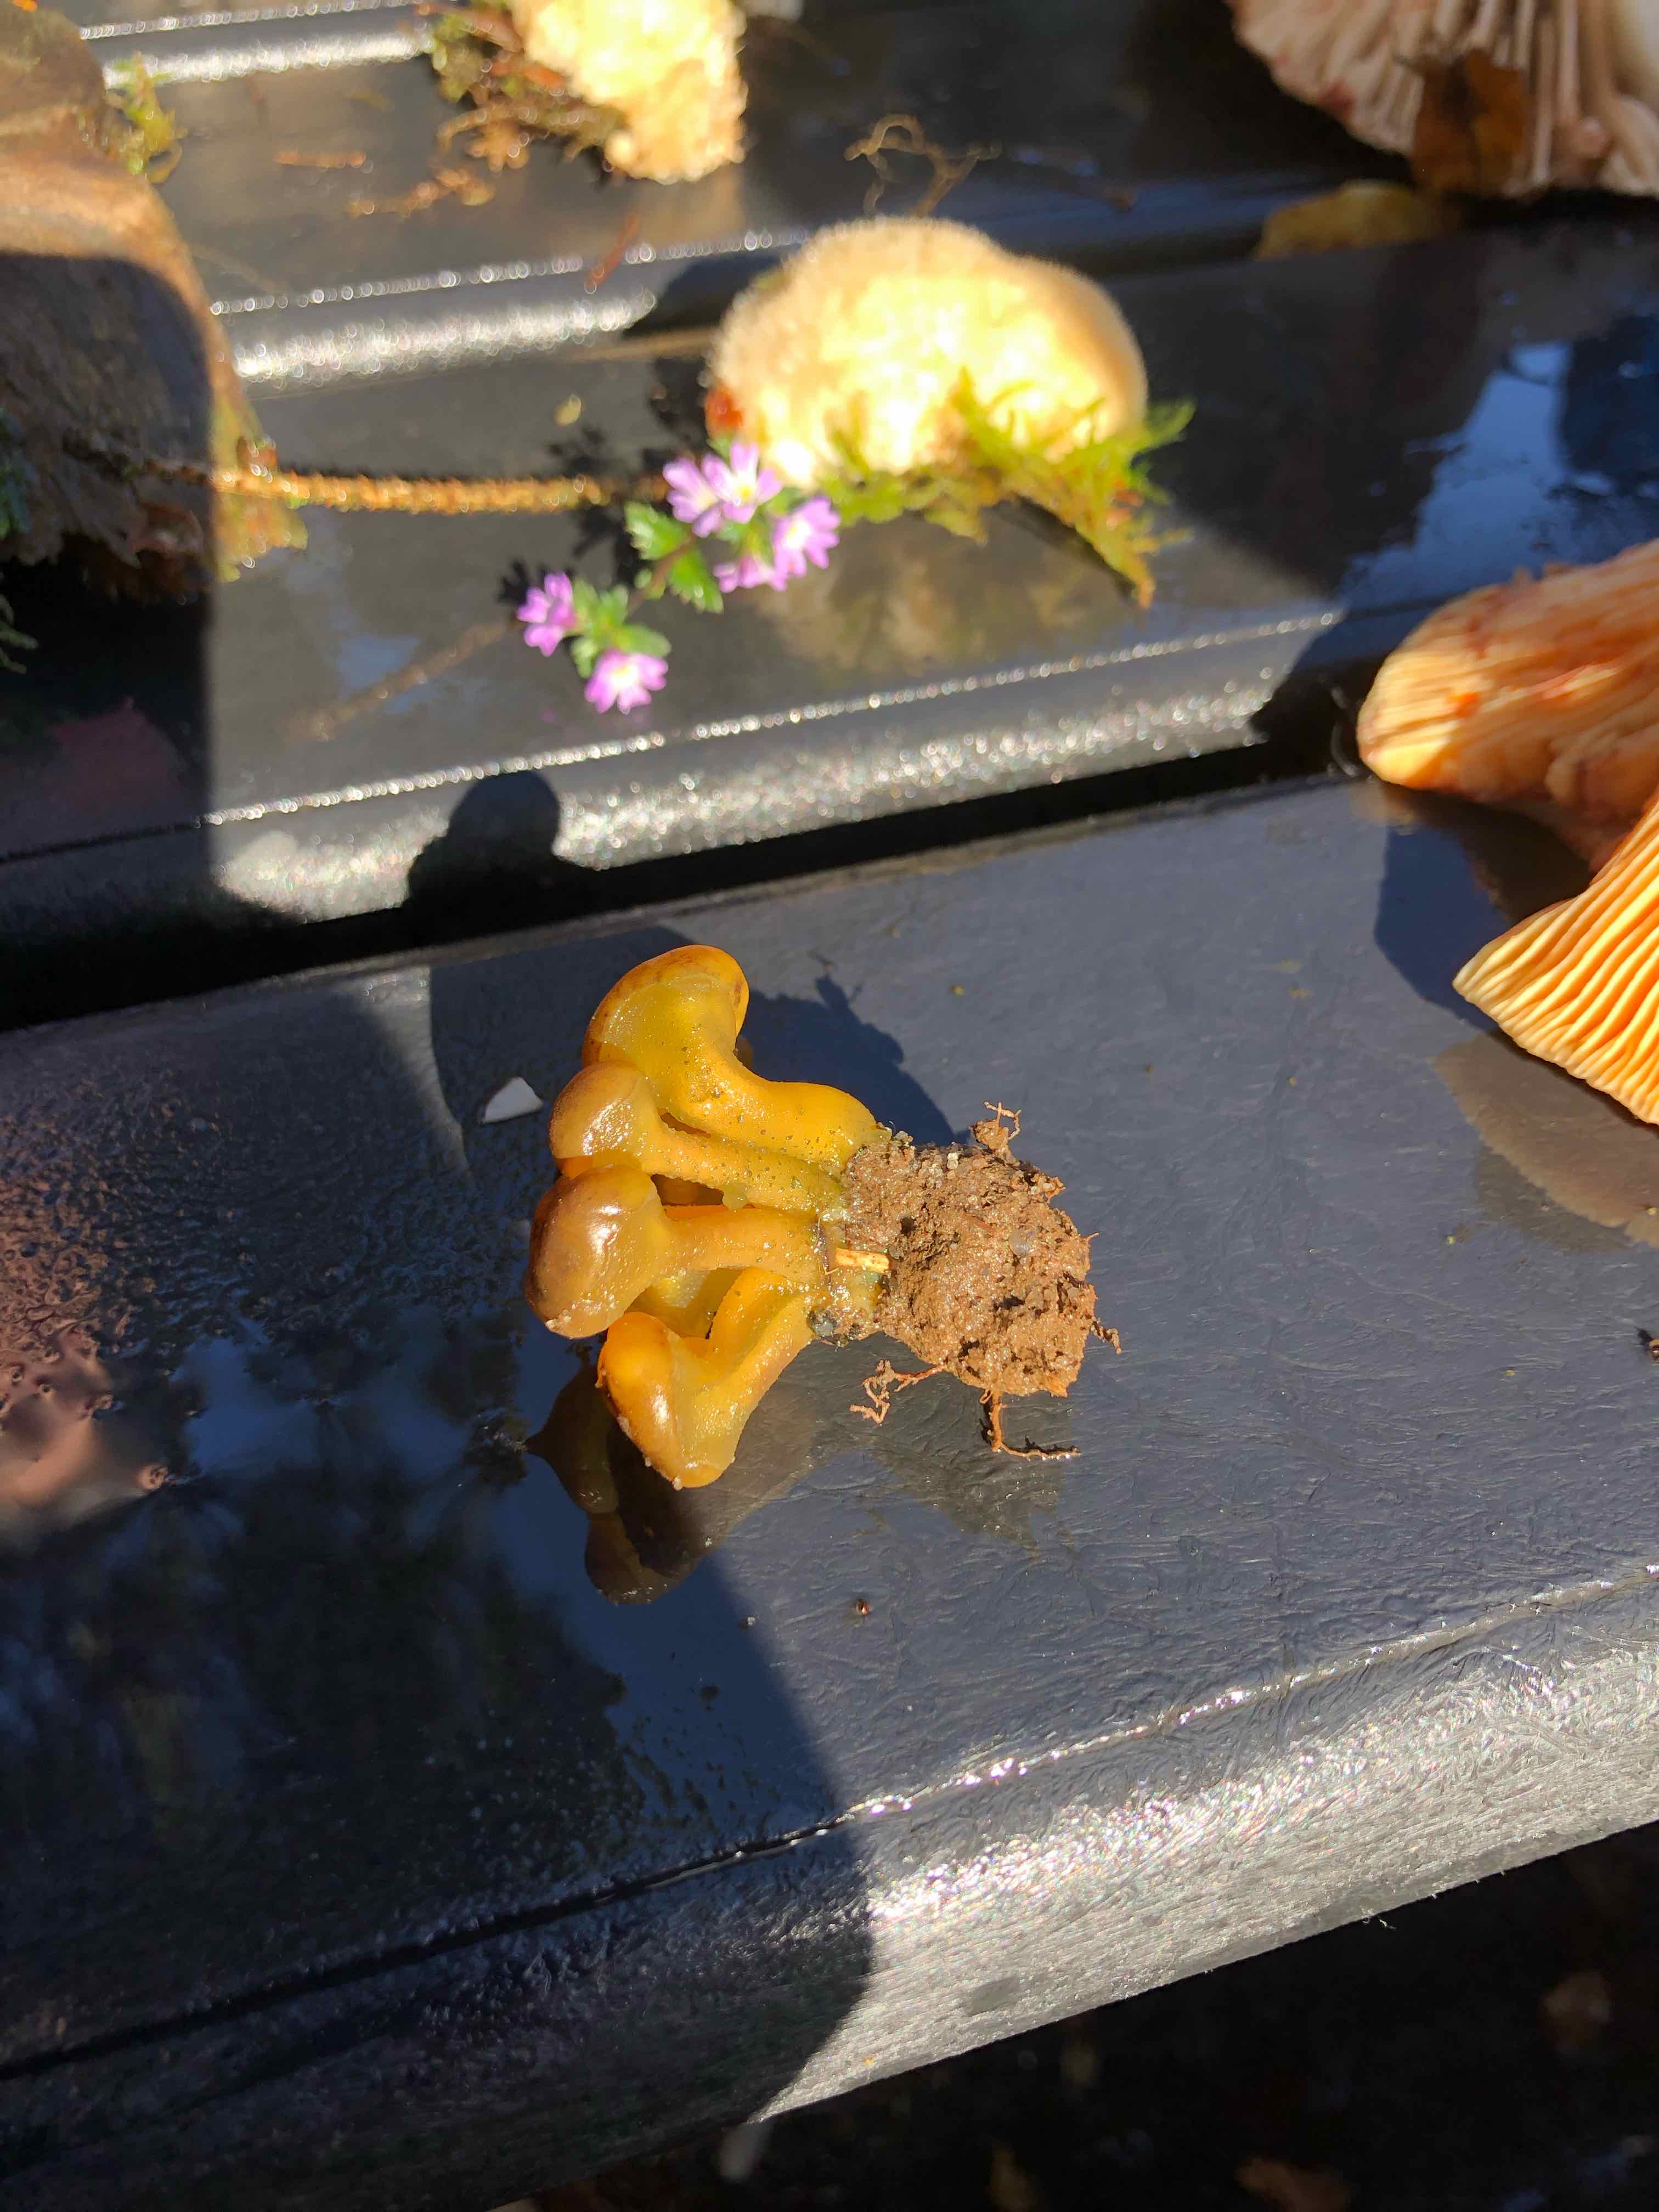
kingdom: Fungi
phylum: Ascomycota
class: Leotiomycetes
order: Leotiales
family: Leotiaceae
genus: Leotia
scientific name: Leotia lubrica
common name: ravsvamp
